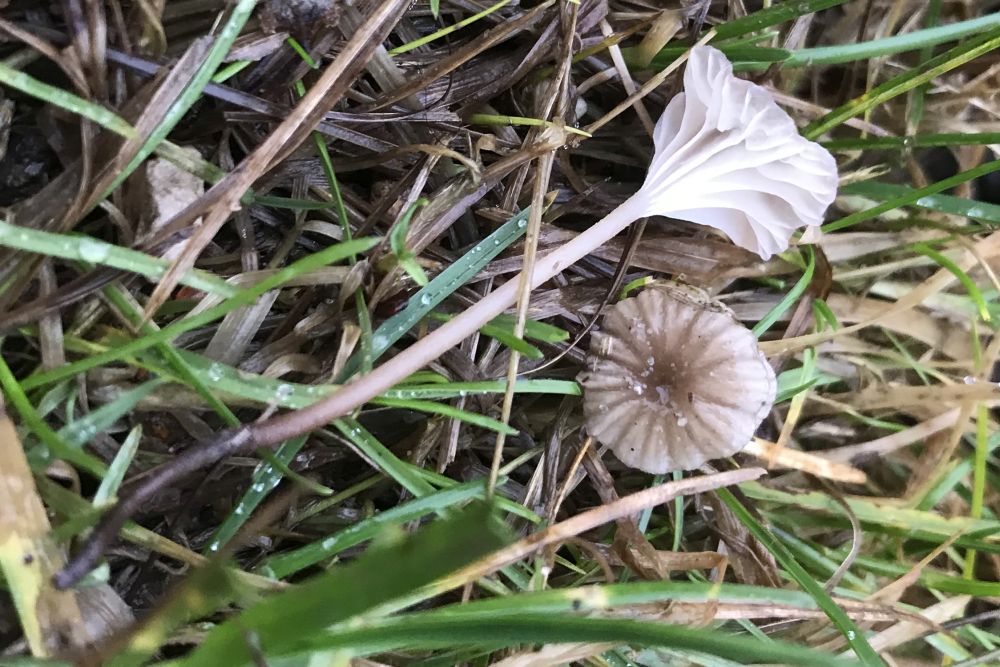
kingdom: Fungi
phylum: Basidiomycota
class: Agaricomycetes
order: Agaricales
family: Mycenaceae
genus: Mycena
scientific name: Mycena belliae
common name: tagrørs-huesvamp
